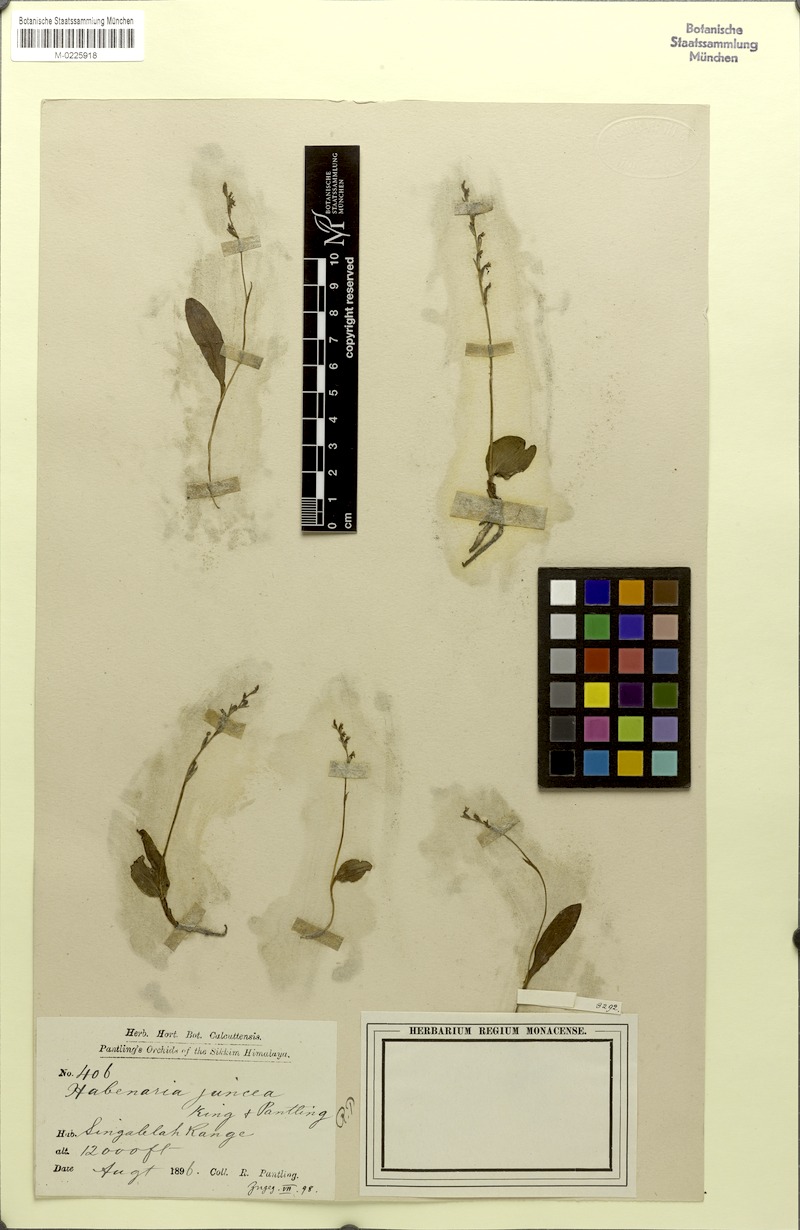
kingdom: Plantae
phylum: Tracheophyta
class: Liliopsida
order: Asparagales
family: Orchidaceae
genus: Platanthera
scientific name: Platanthera nematocaulon
